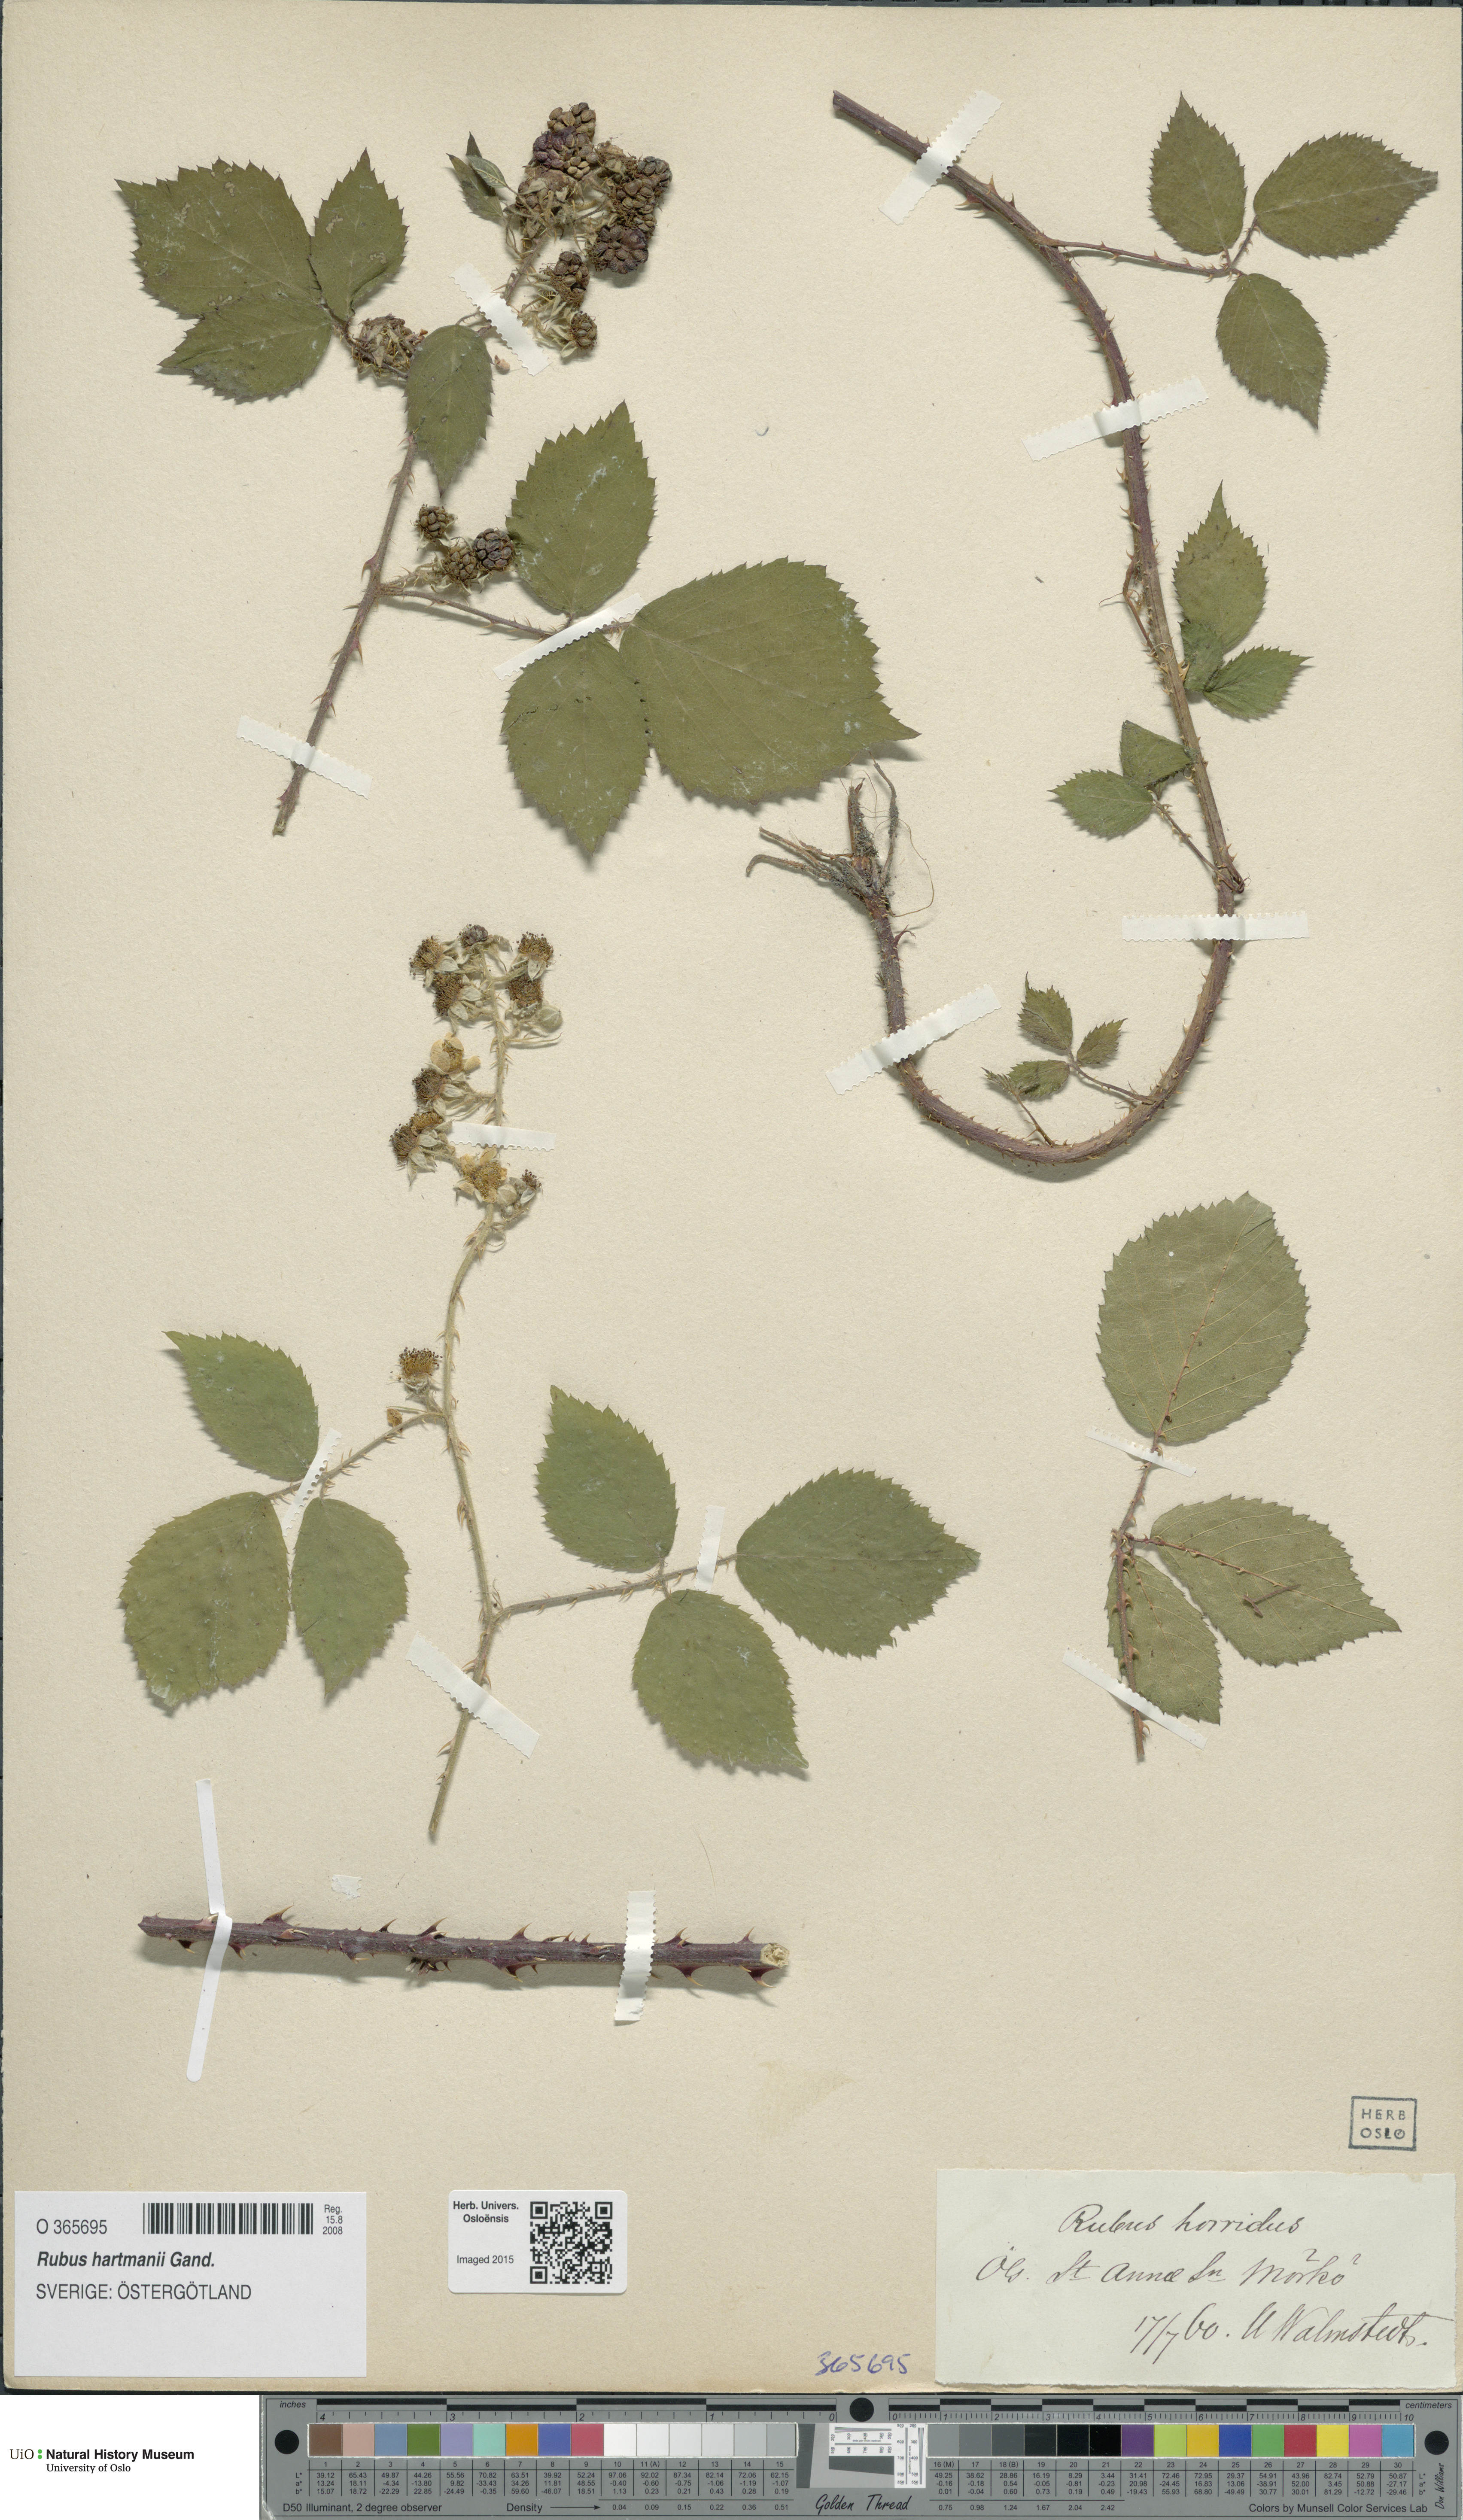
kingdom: Plantae
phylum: Tracheophyta
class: Magnoliopsida
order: Rosales
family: Rosaceae
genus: Rubus
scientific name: Rubus hartmanii
